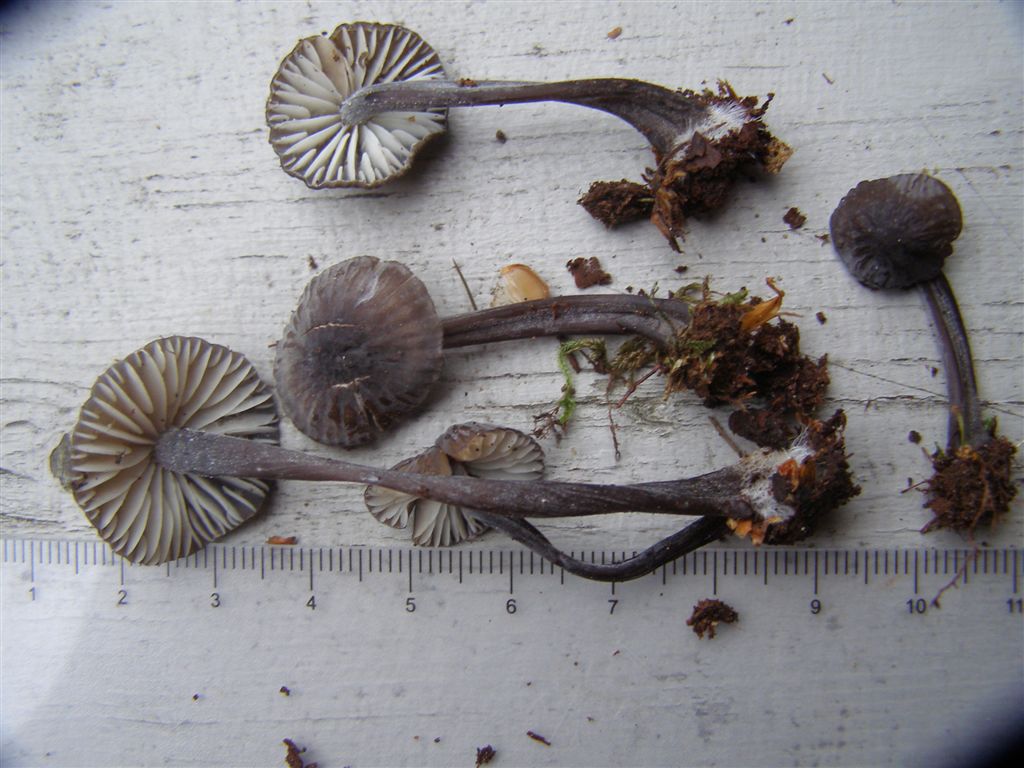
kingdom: Fungi
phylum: Basidiomycota
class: Agaricomycetes
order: Agaricales
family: Mycenaceae
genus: Mycena
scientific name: Mycena galopus
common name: hvidmælket huesvamp
